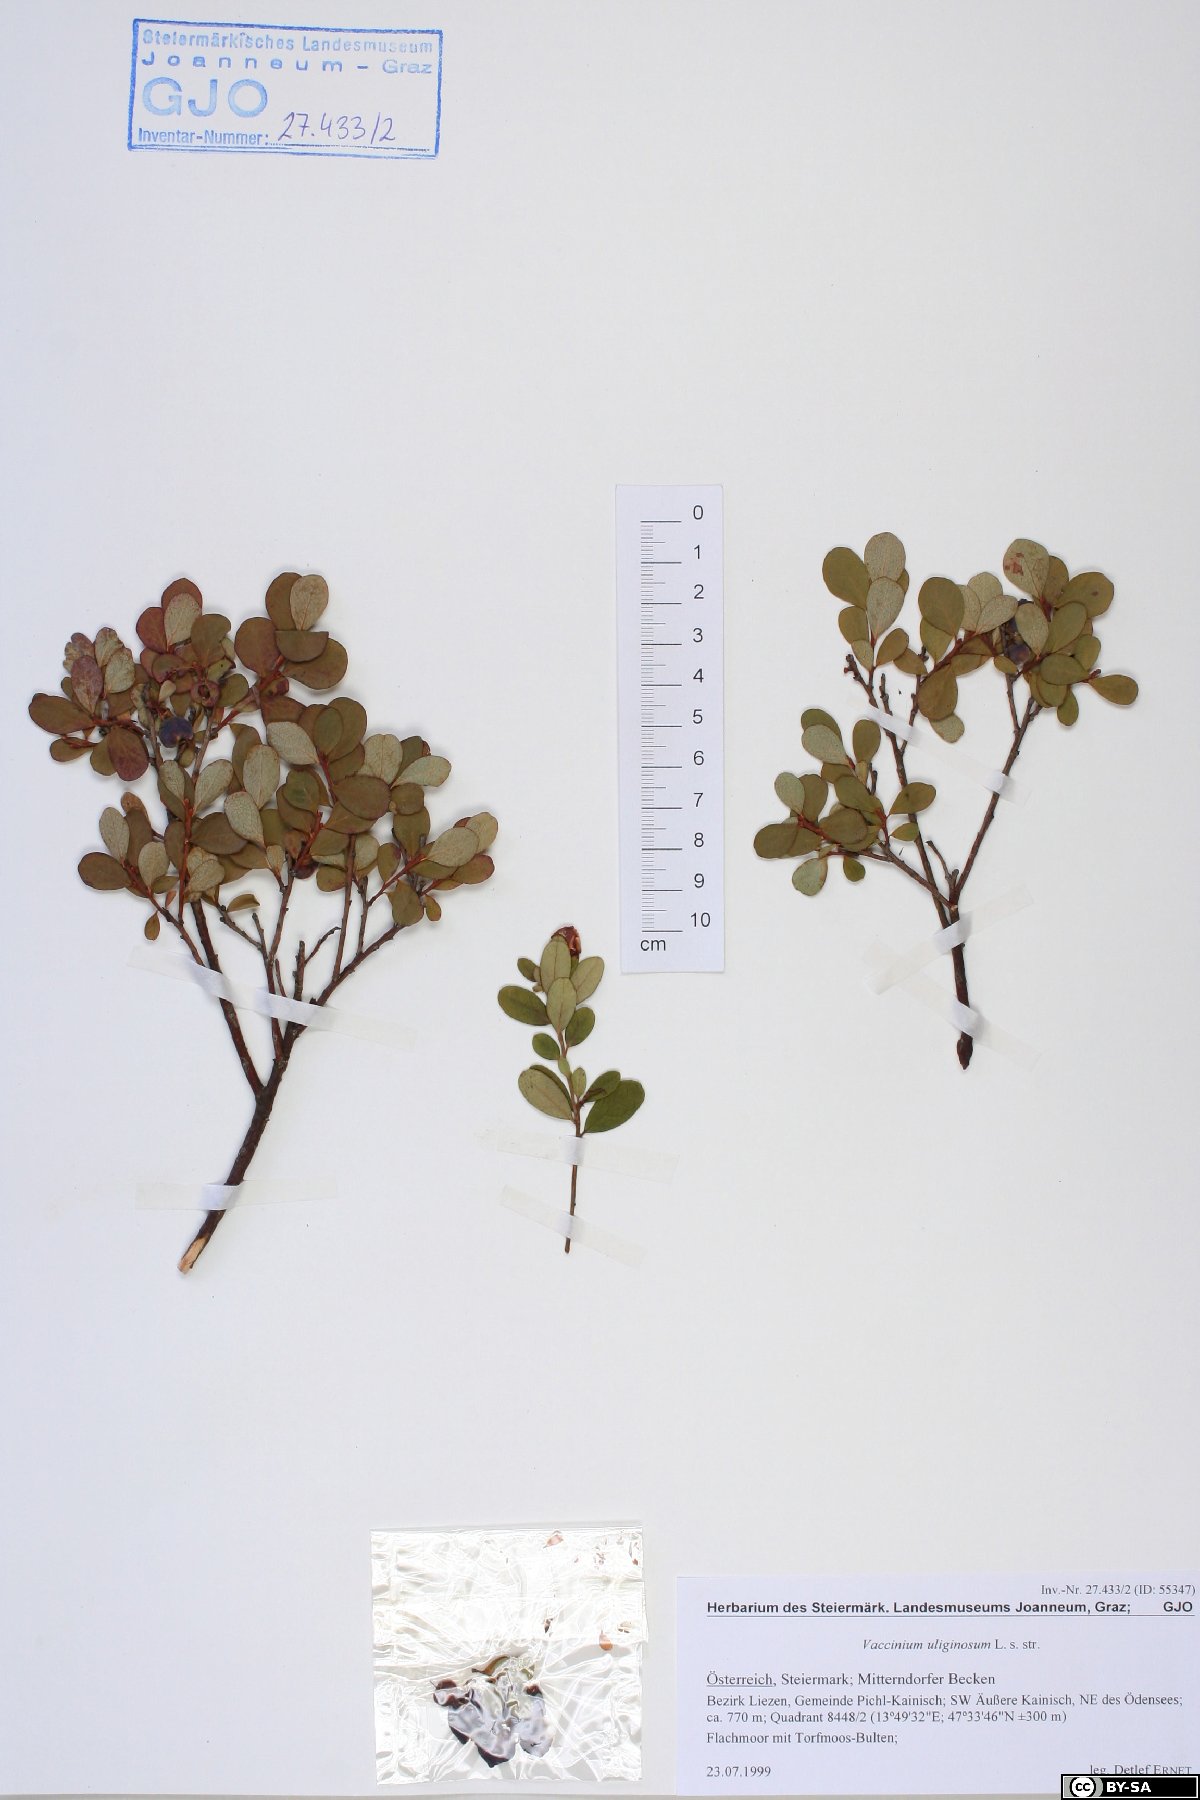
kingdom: Plantae
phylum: Tracheophyta
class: Magnoliopsida
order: Ericales
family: Ericaceae
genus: Vaccinium
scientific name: Vaccinium uliginosum
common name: Bog bilberry
